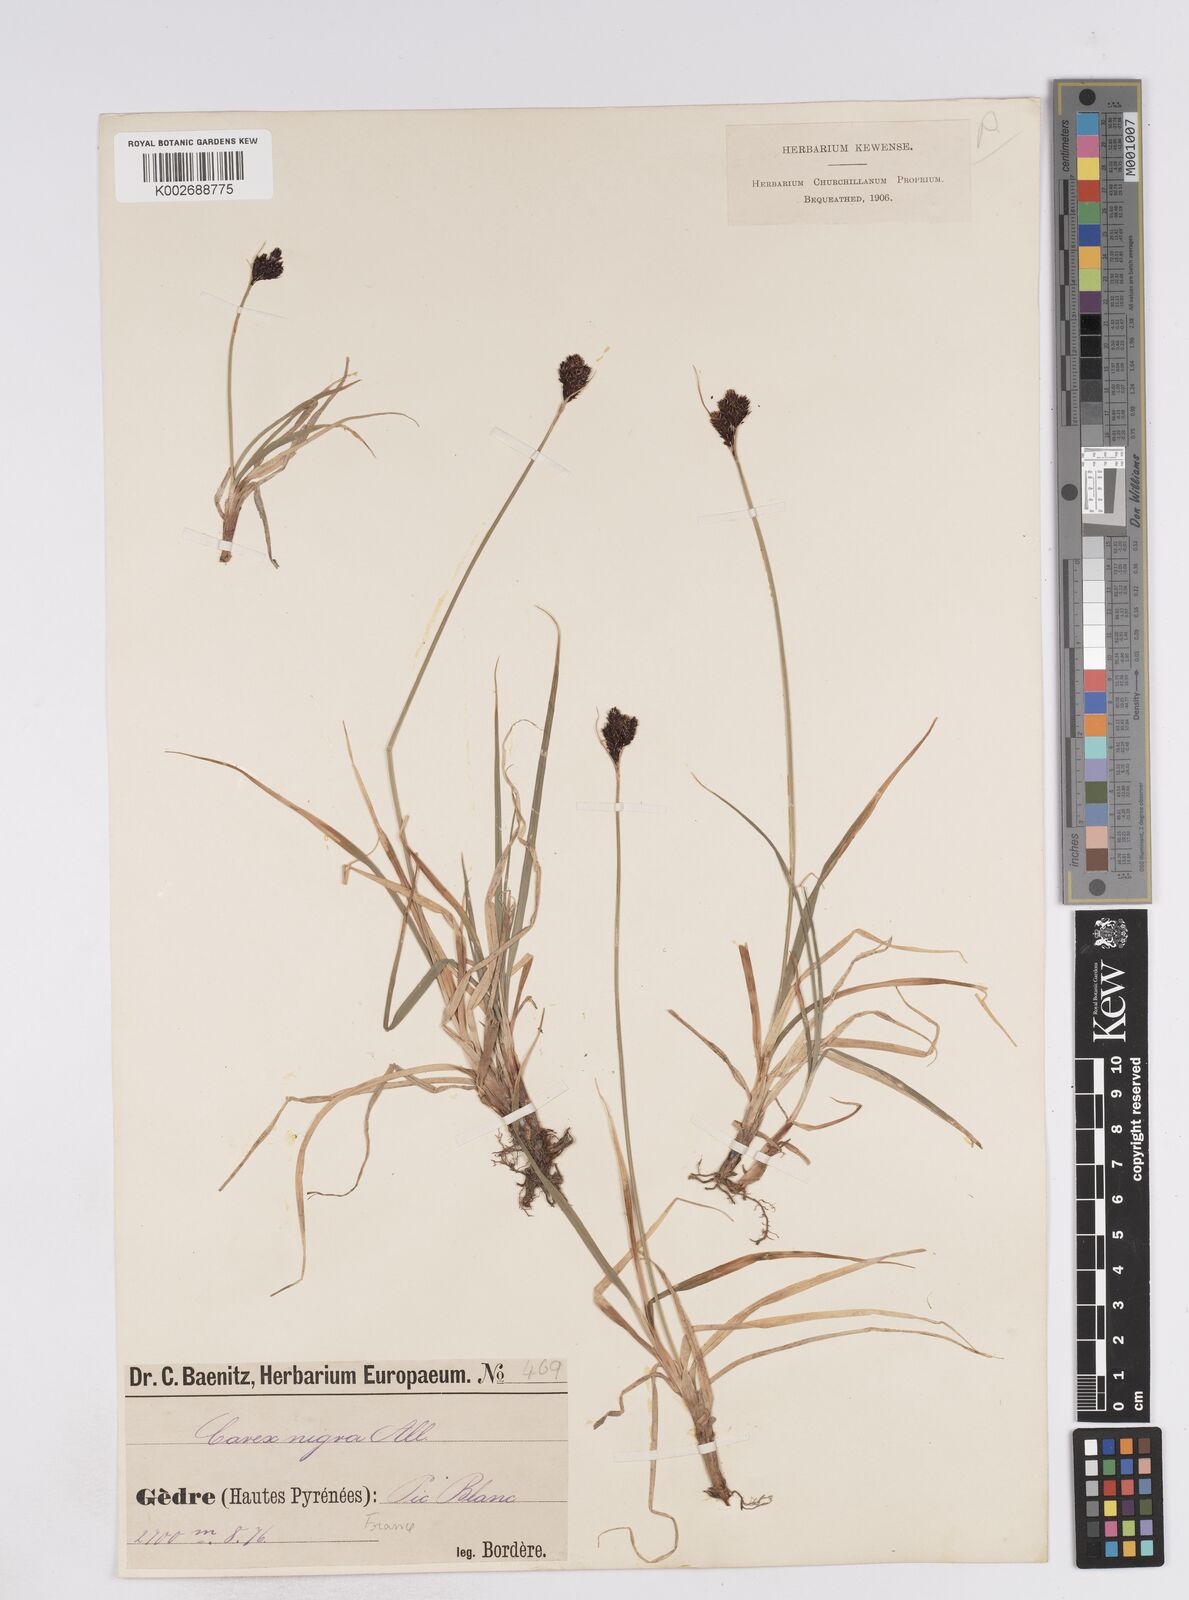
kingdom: Plantae
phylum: Tracheophyta
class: Liliopsida
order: Poales
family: Cyperaceae
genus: Carex
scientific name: Carex parviflora
